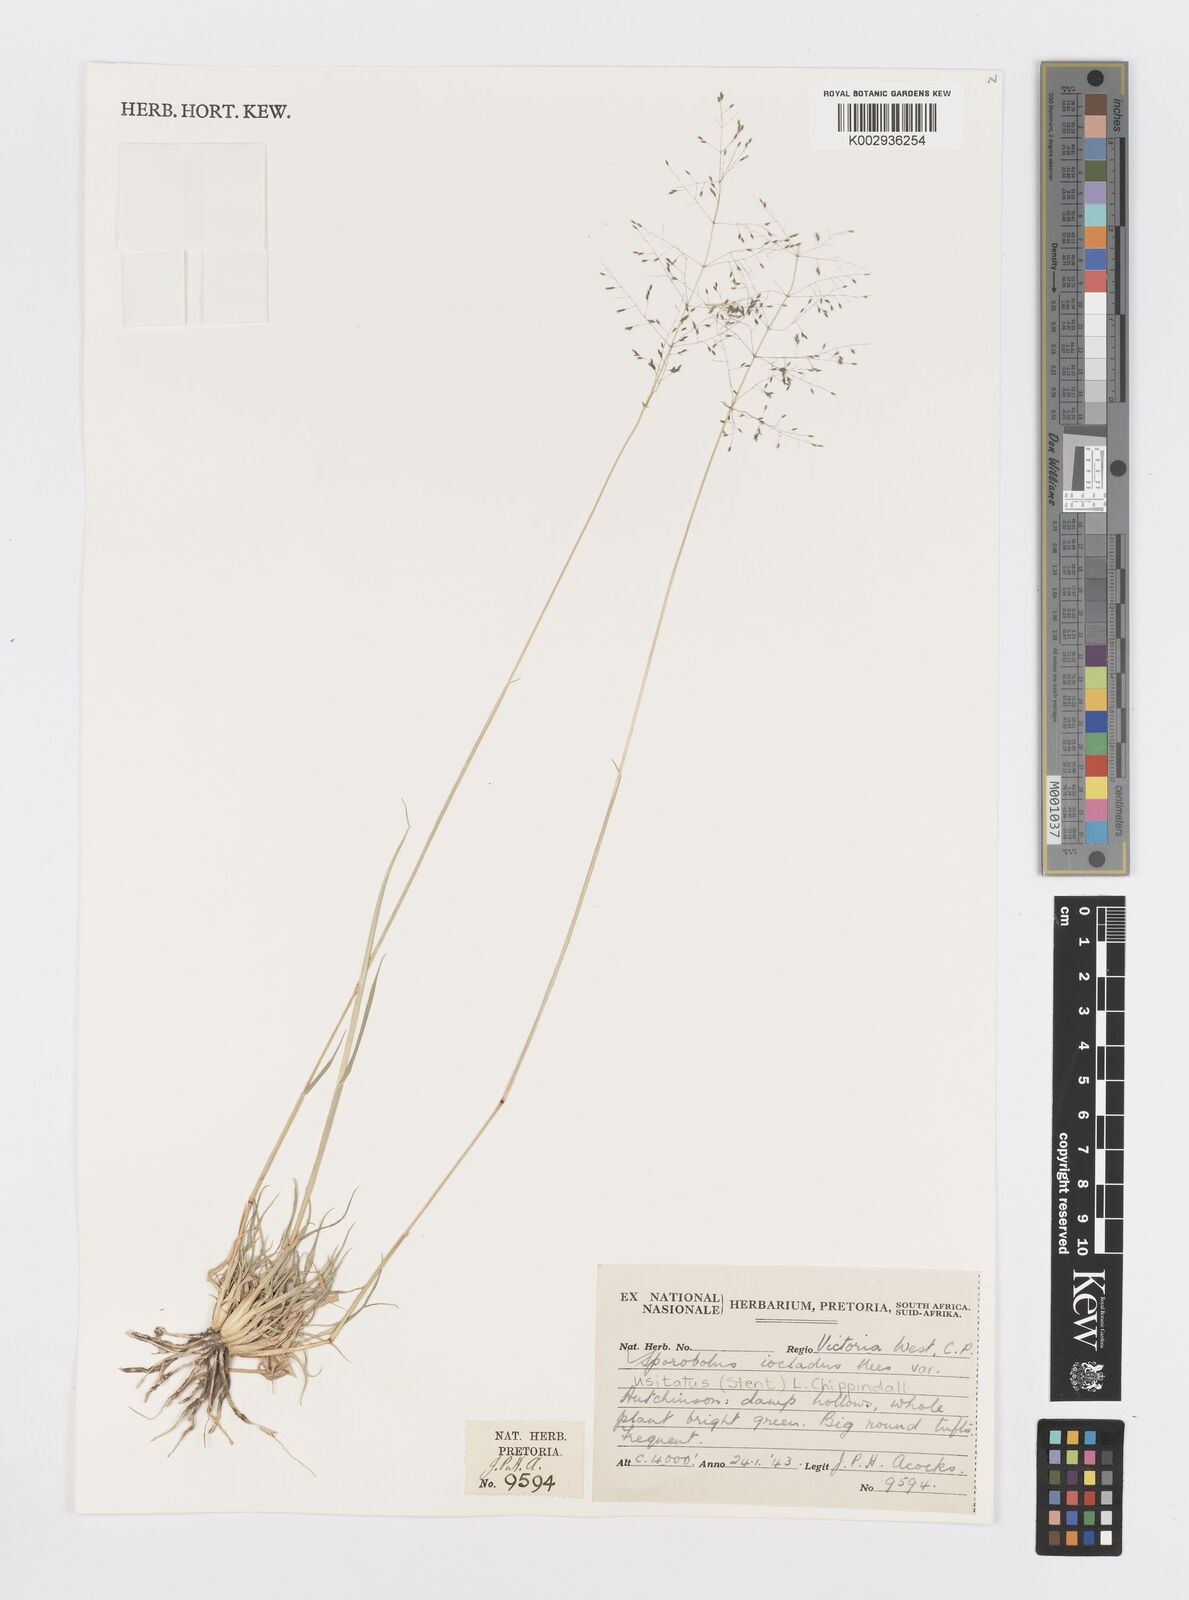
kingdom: Plantae
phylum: Tracheophyta
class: Liliopsida
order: Poales
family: Poaceae
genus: Sporobolus
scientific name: Sporobolus ioclados
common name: Pan dropseed
